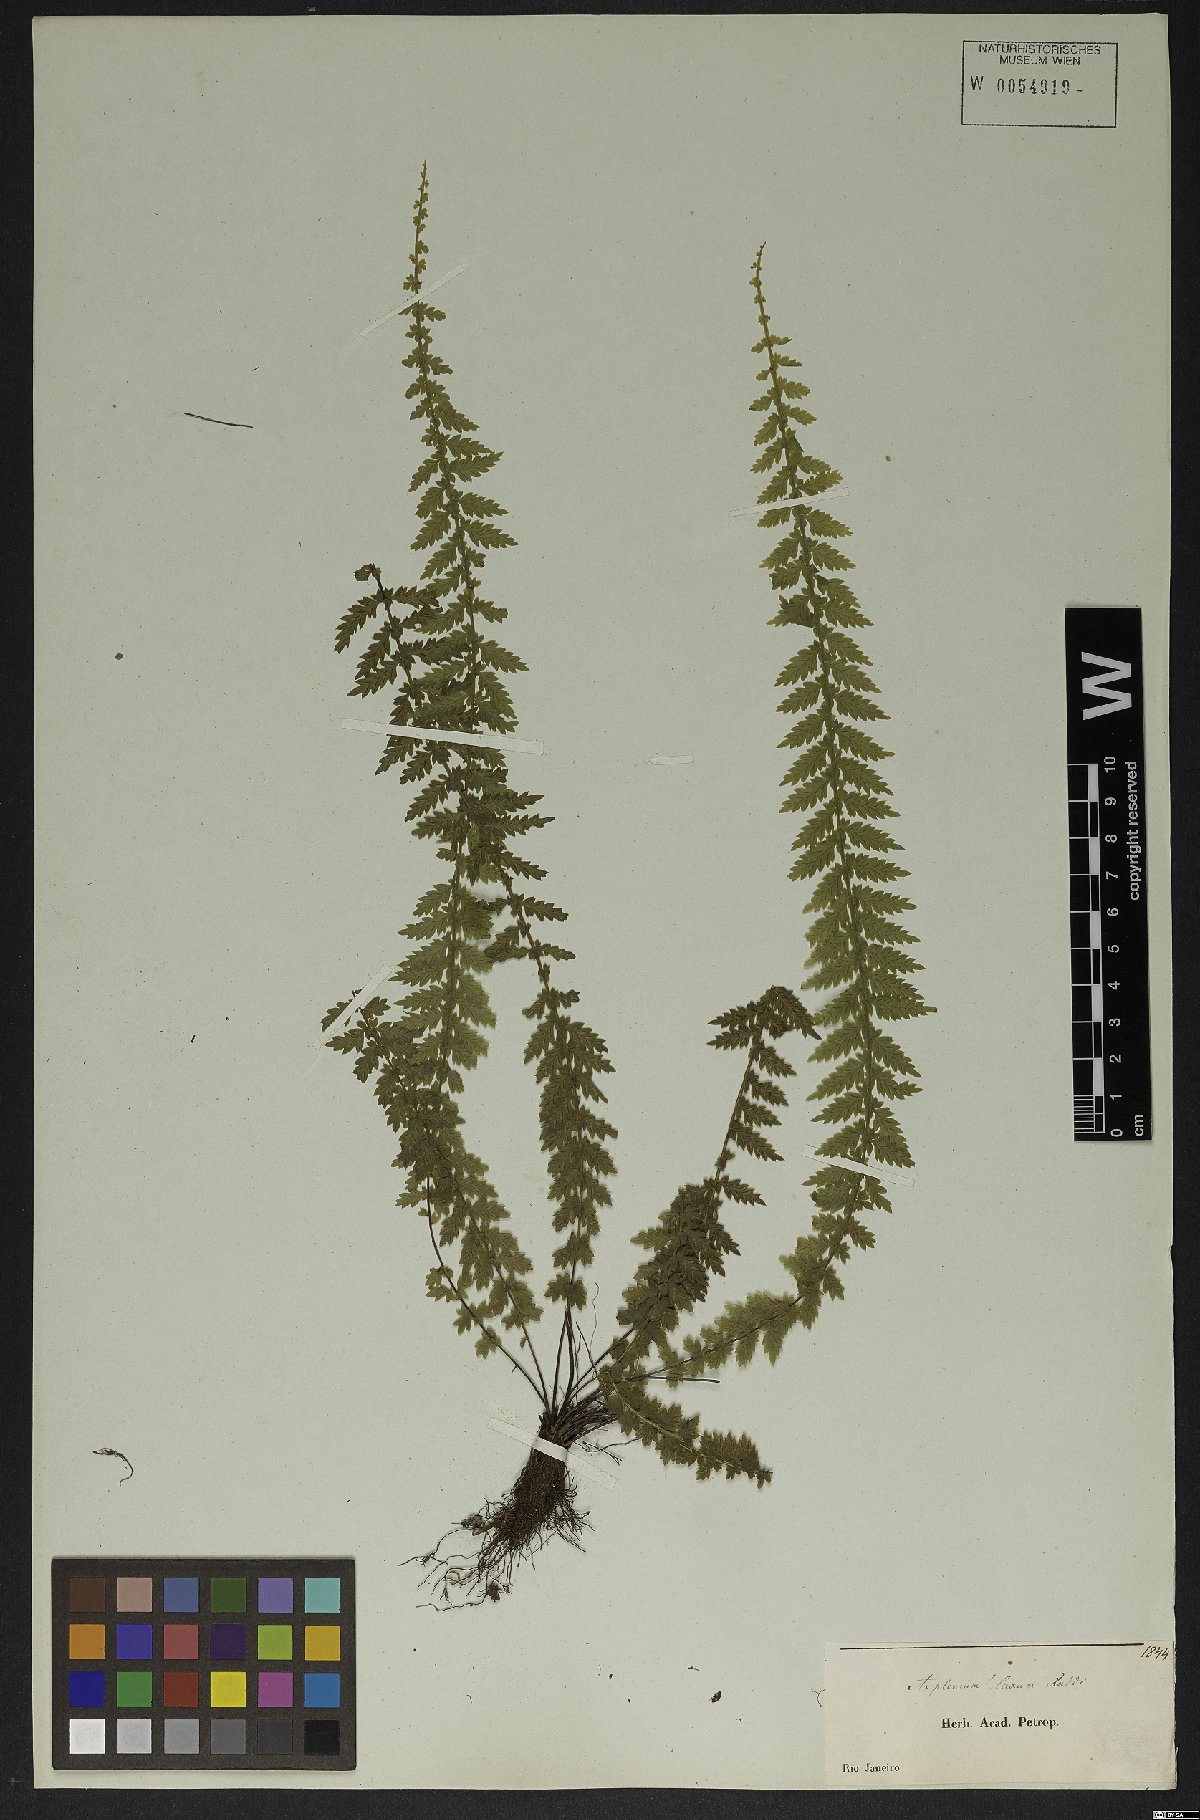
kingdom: Plantae
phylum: Tracheophyta
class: Polypodiopsida
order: Polypodiales
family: Aspleniaceae
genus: Asplenium
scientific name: Asplenium mucronatum
